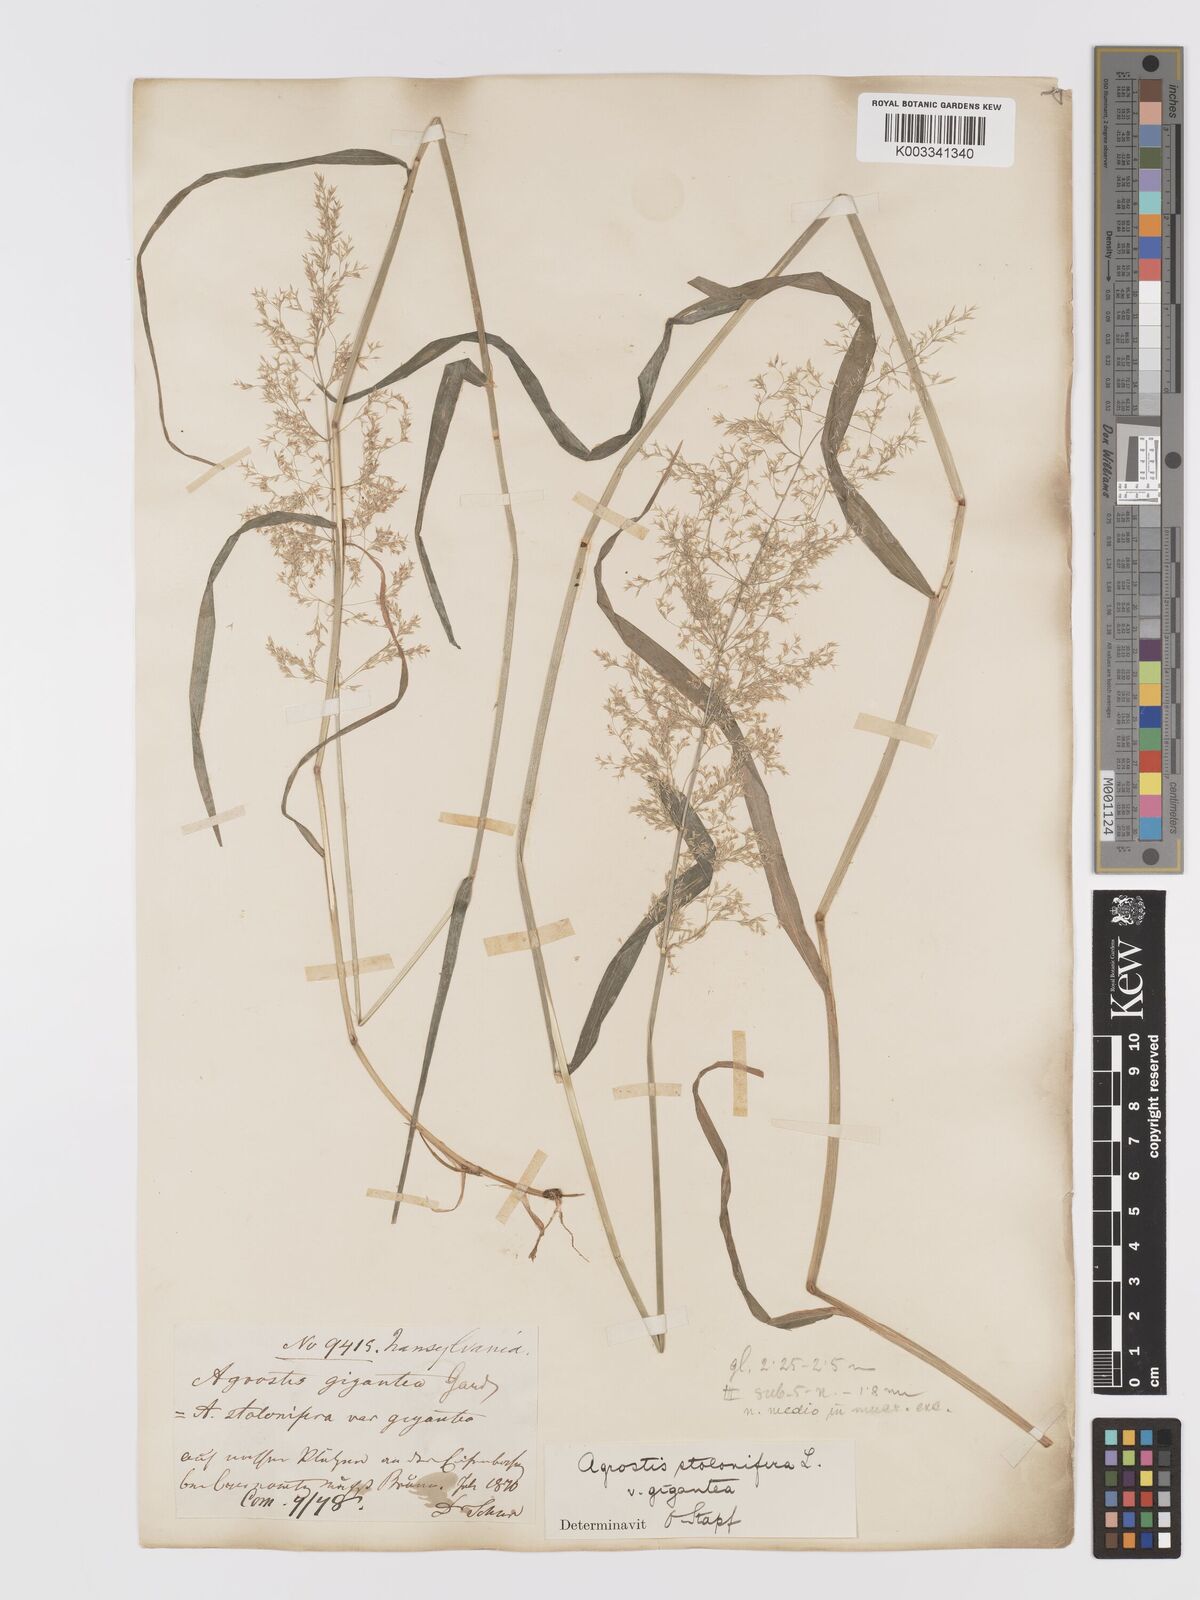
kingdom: Plantae
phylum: Tracheophyta
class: Liliopsida
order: Poales
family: Poaceae
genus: Agrostis
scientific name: Agrostis gigantea
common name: Black bent
